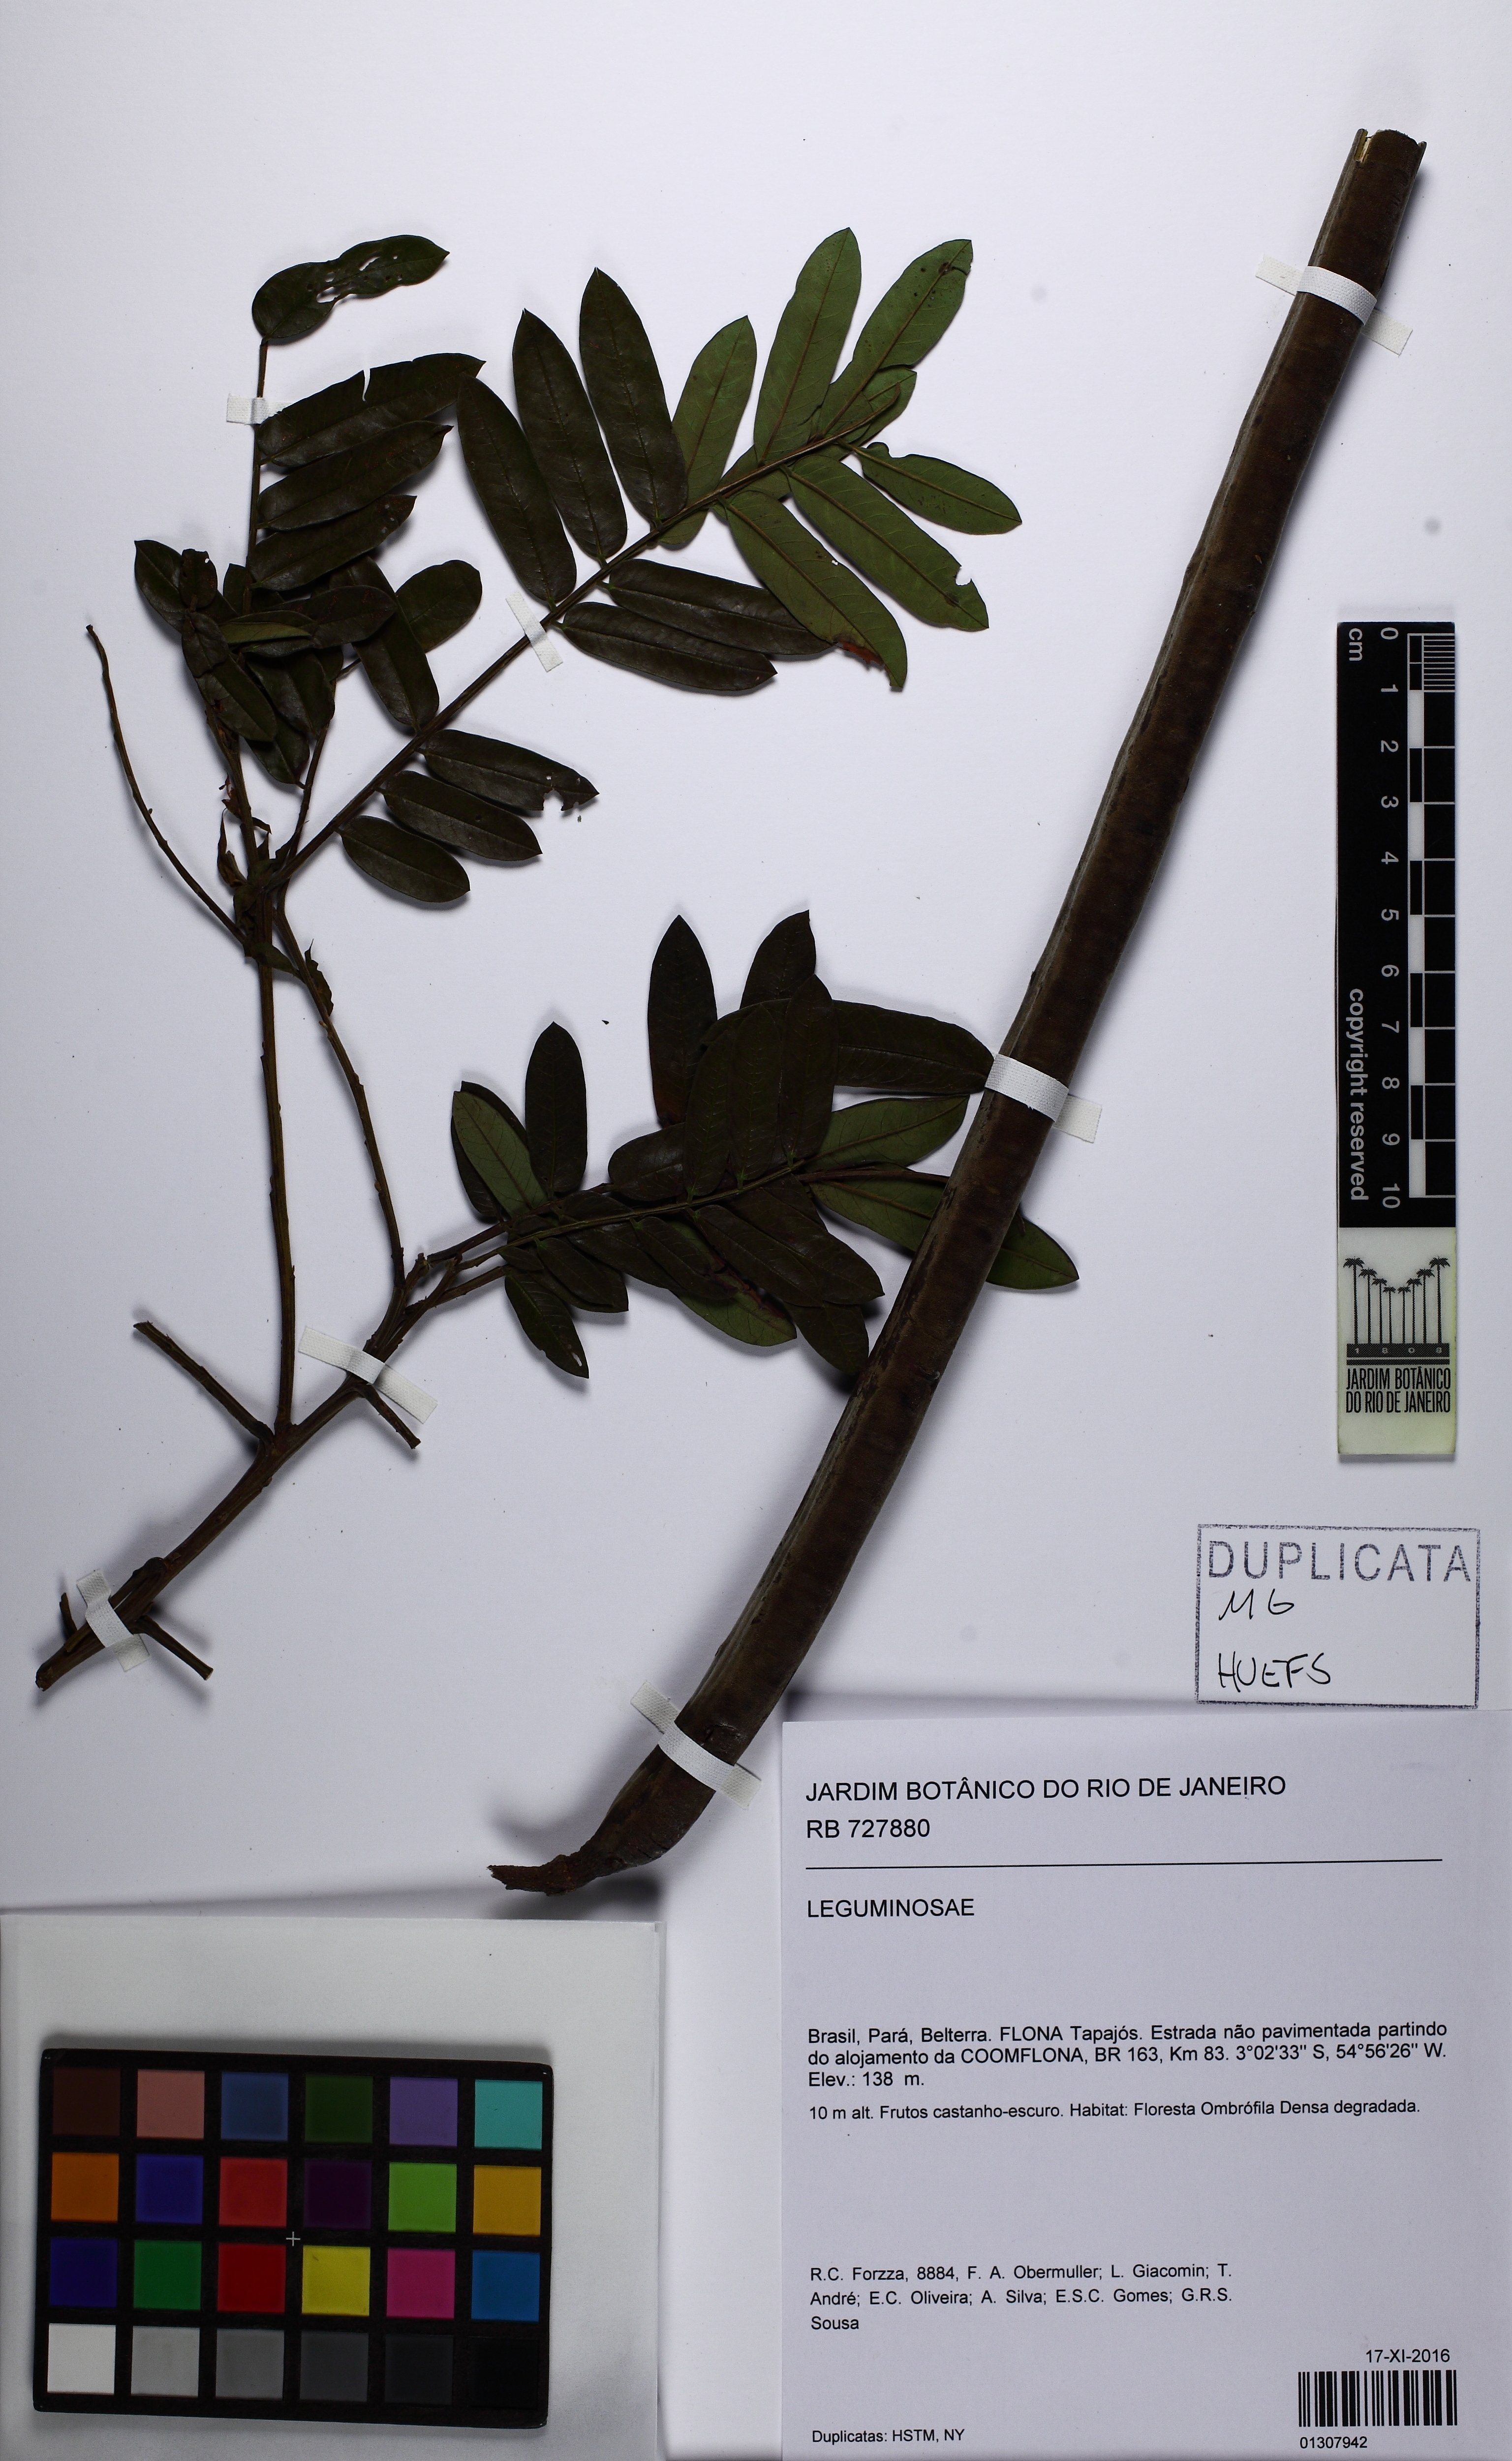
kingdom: Plantae
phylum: Tracheophyta
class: Magnoliopsida
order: Fabales
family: Fabaceae
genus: Cassia
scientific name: Cassia
